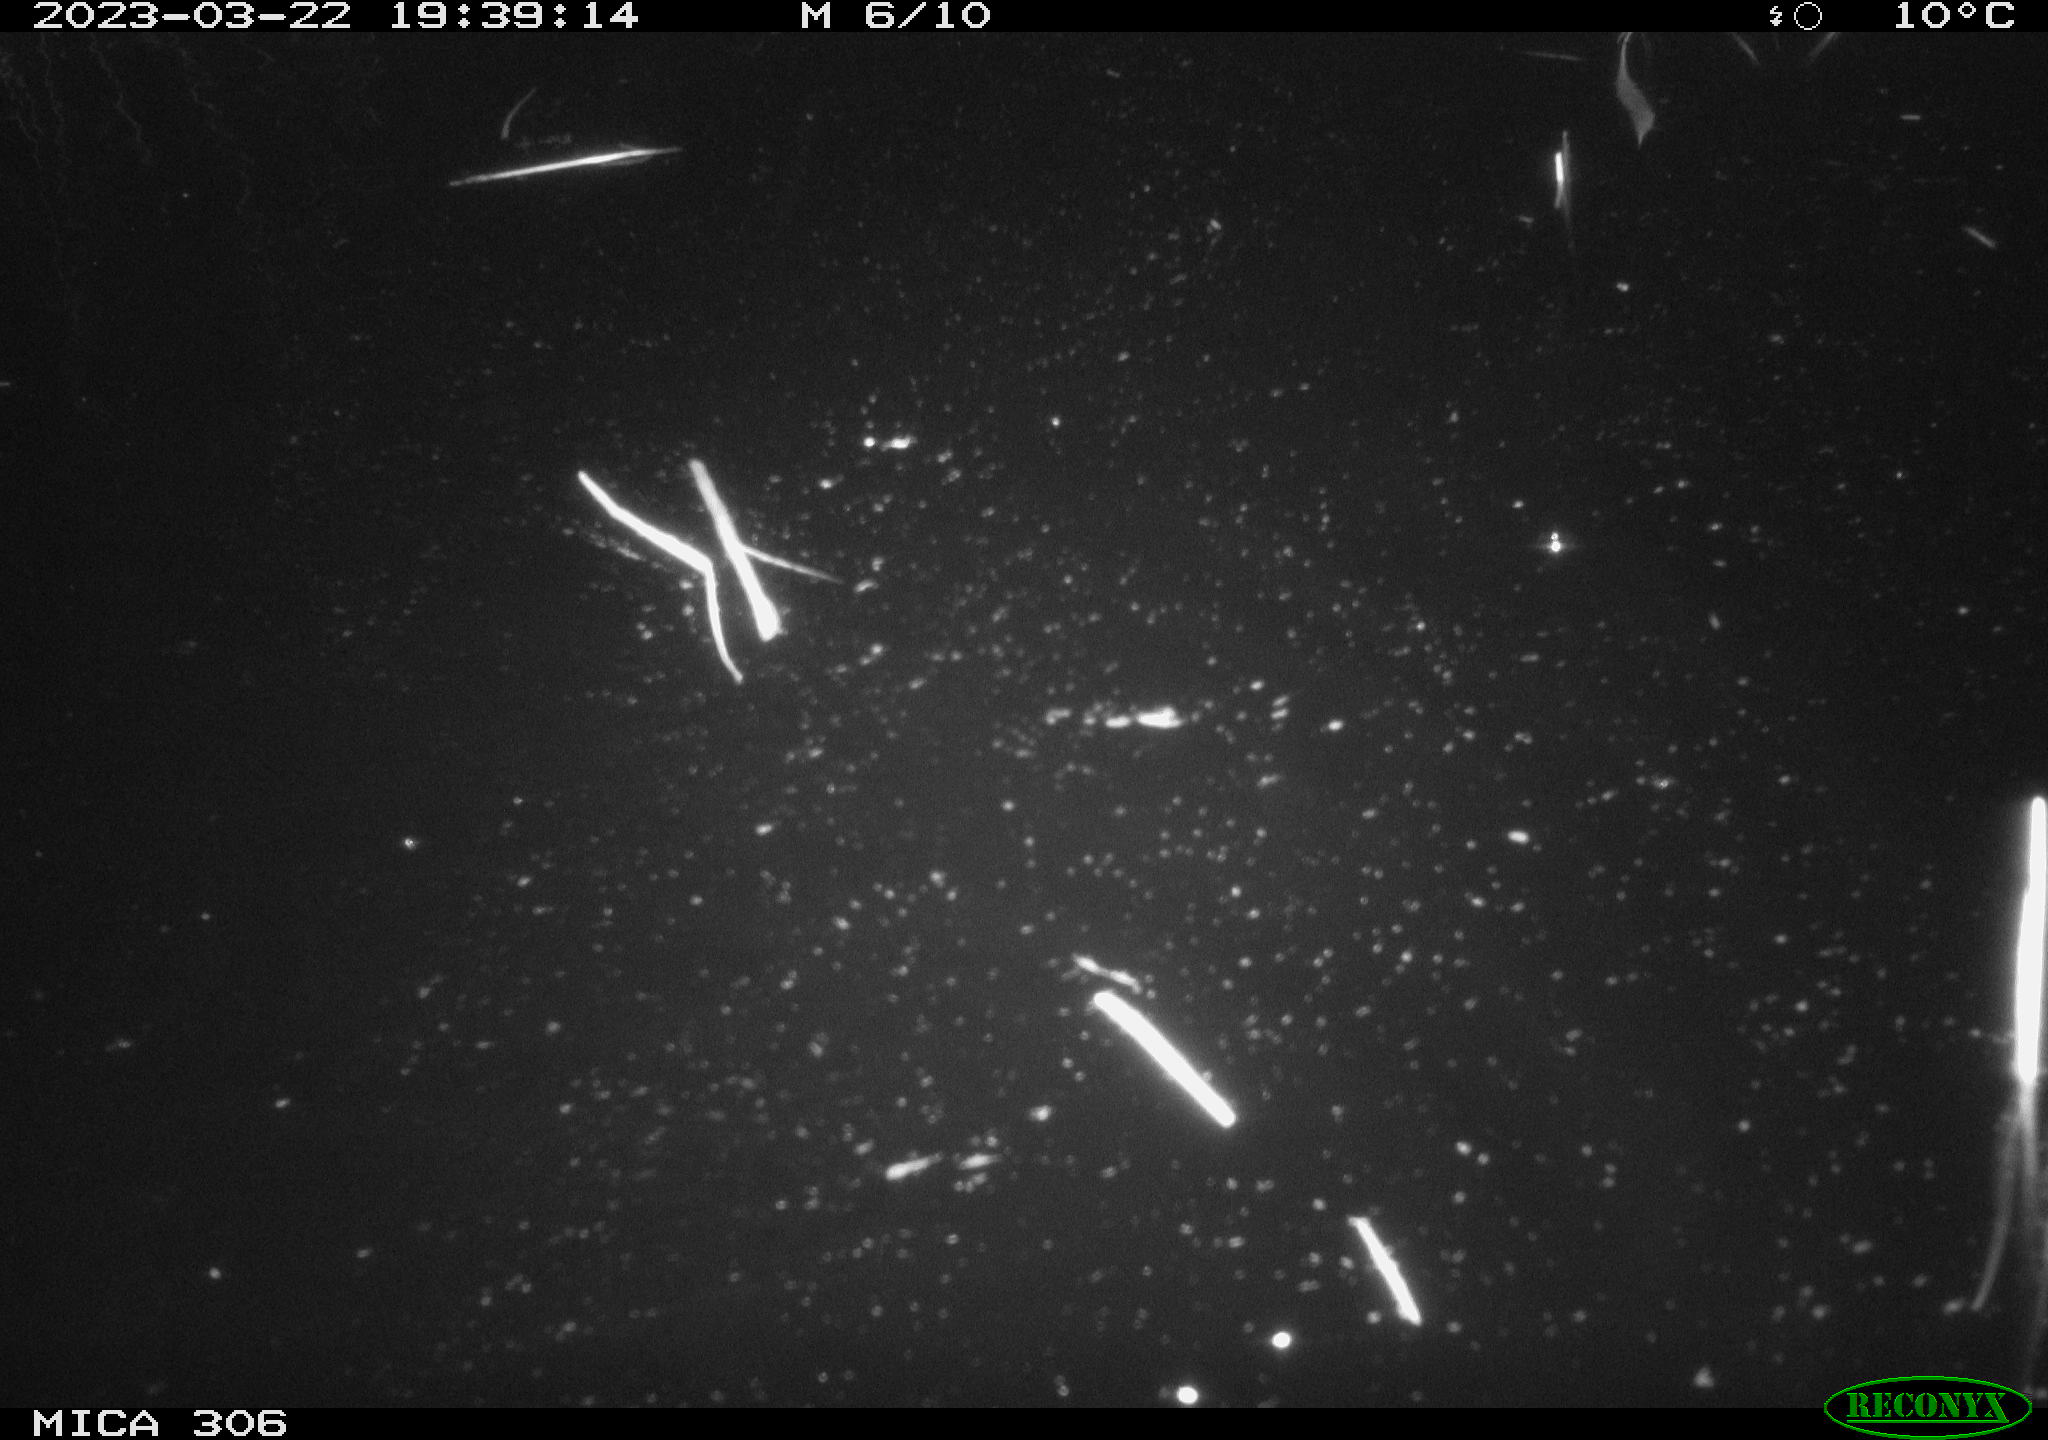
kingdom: Animalia
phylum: Chordata
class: Mammalia
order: Rodentia
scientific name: Rodentia
